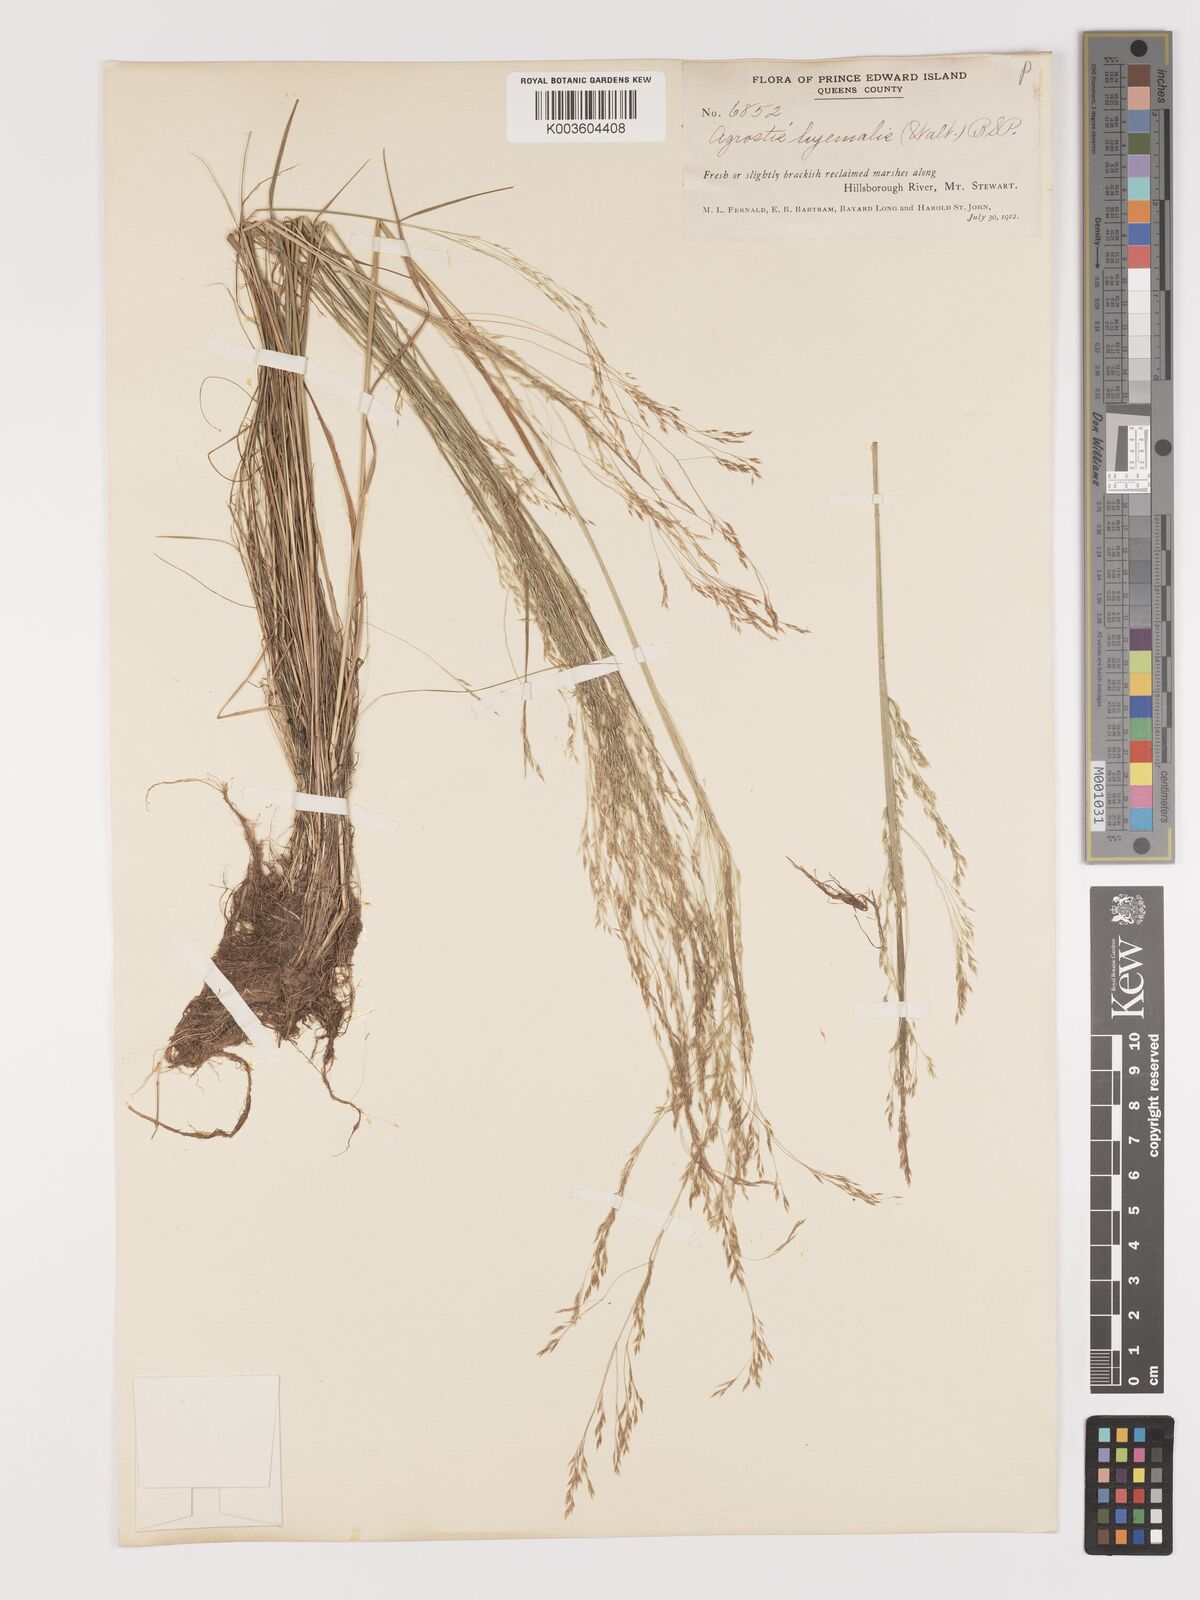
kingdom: Plantae
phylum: Tracheophyta
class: Liliopsida
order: Poales
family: Poaceae
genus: Agrostis
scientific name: Agrostis hyemalis
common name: Small bent
